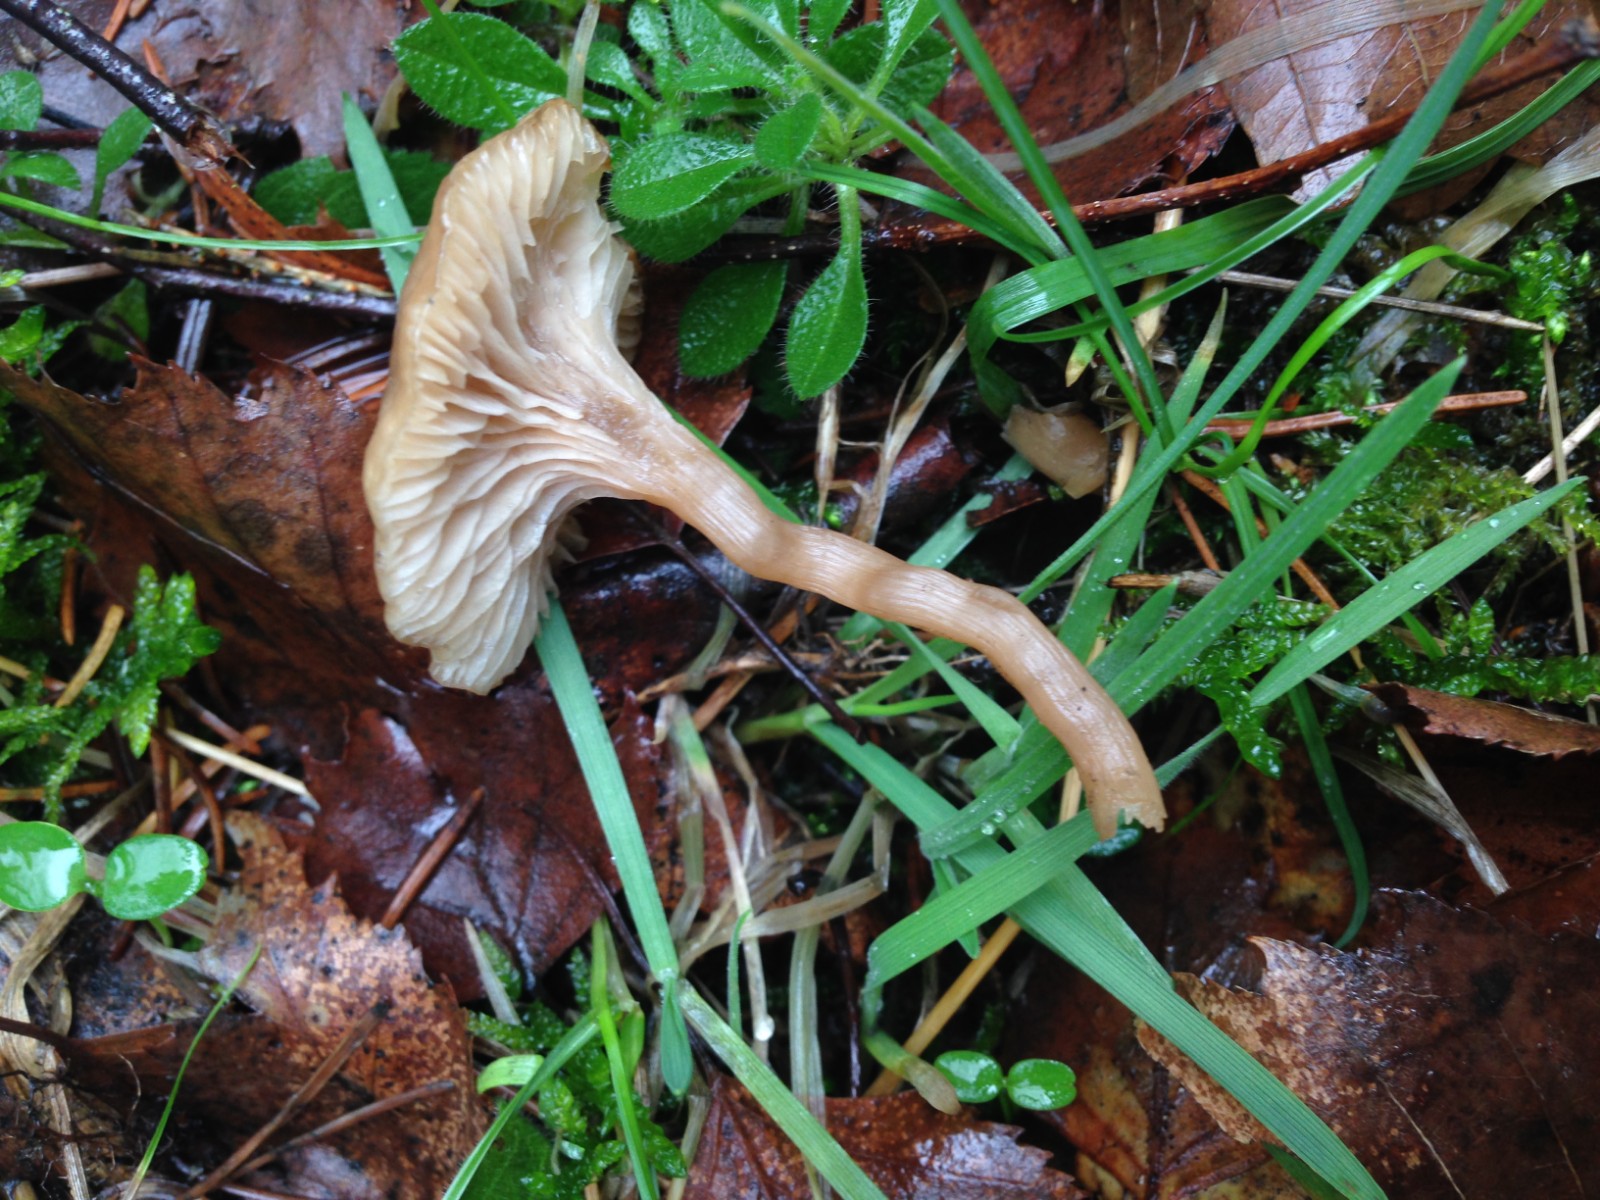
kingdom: Fungi
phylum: Basidiomycota
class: Agaricomycetes
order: Agaricales
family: Tricholomataceae
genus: Clitocybe
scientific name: Clitocybe fragrans
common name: vellugtende tragthat
